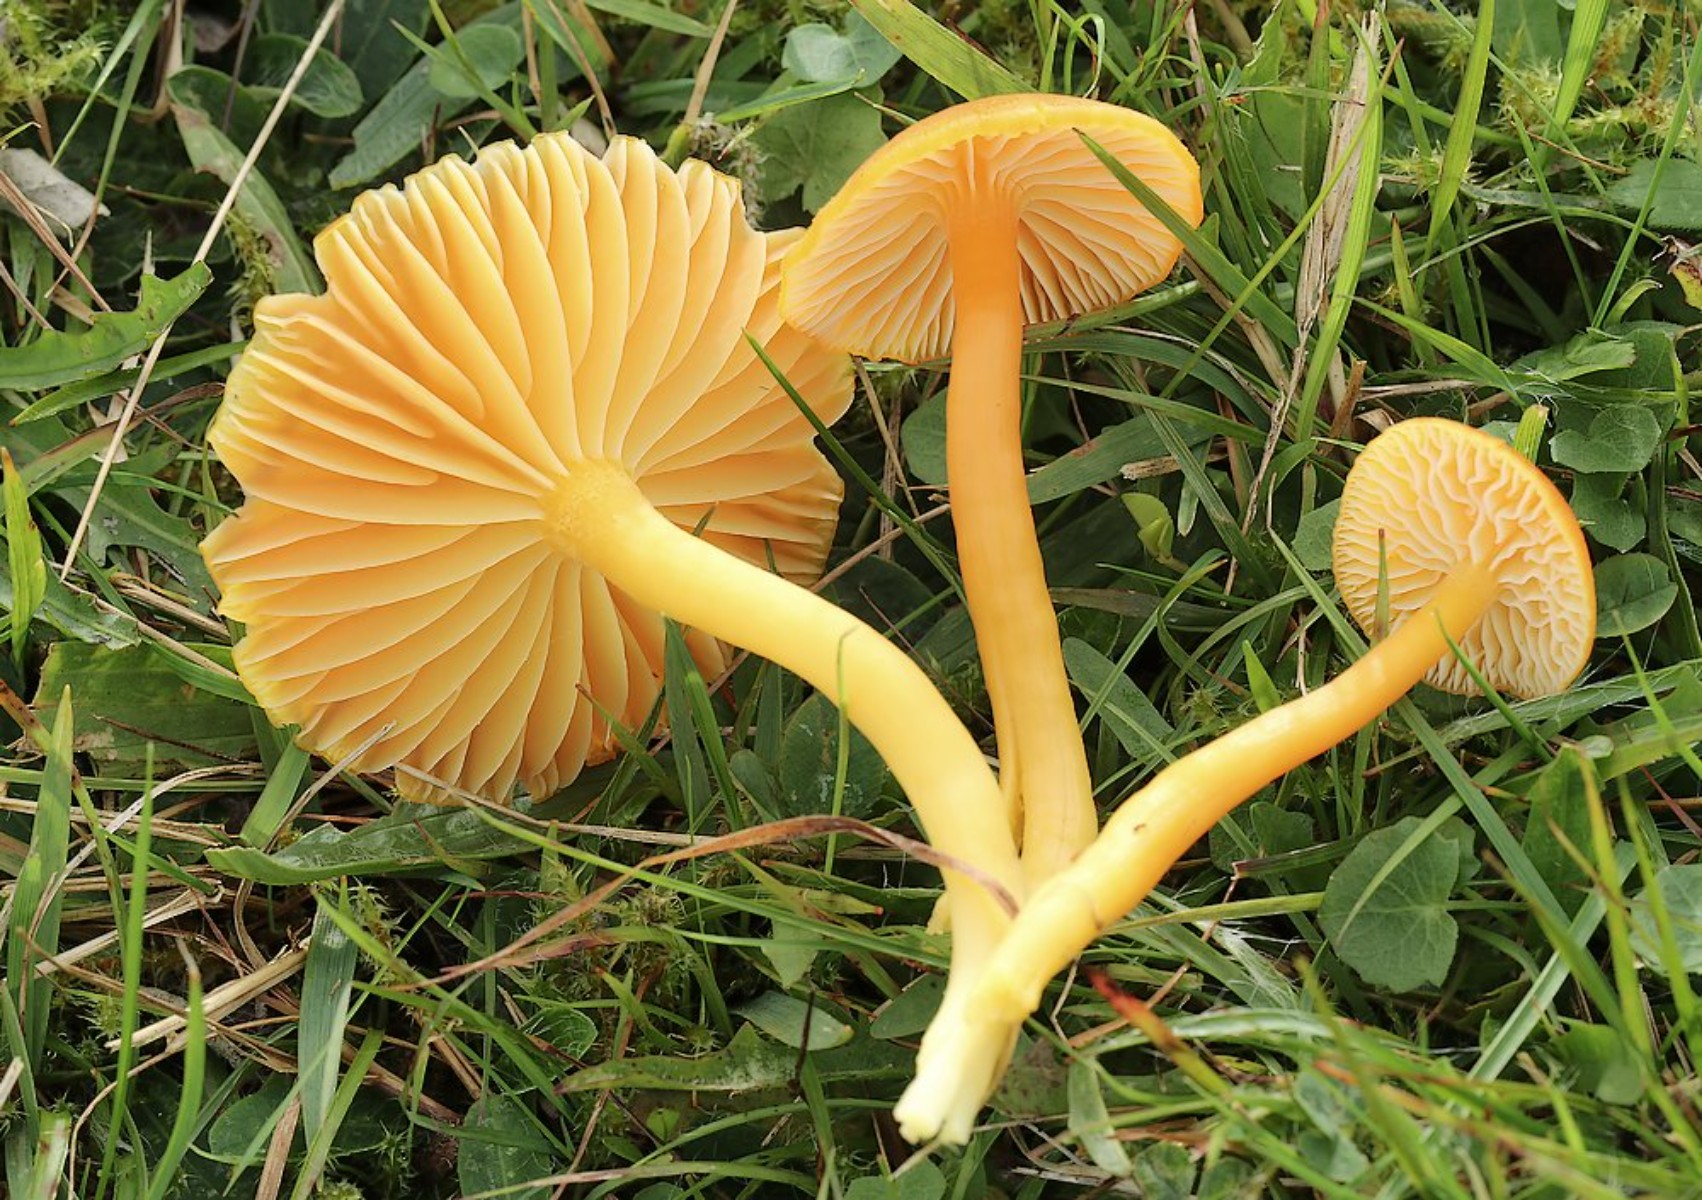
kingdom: Fungi
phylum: Basidiomycota
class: Agaricomycetes
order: Agaricales
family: Hygrophoraceae
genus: Hygrocybe
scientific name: Hygrocybe ceracea
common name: voksgul vokshat
